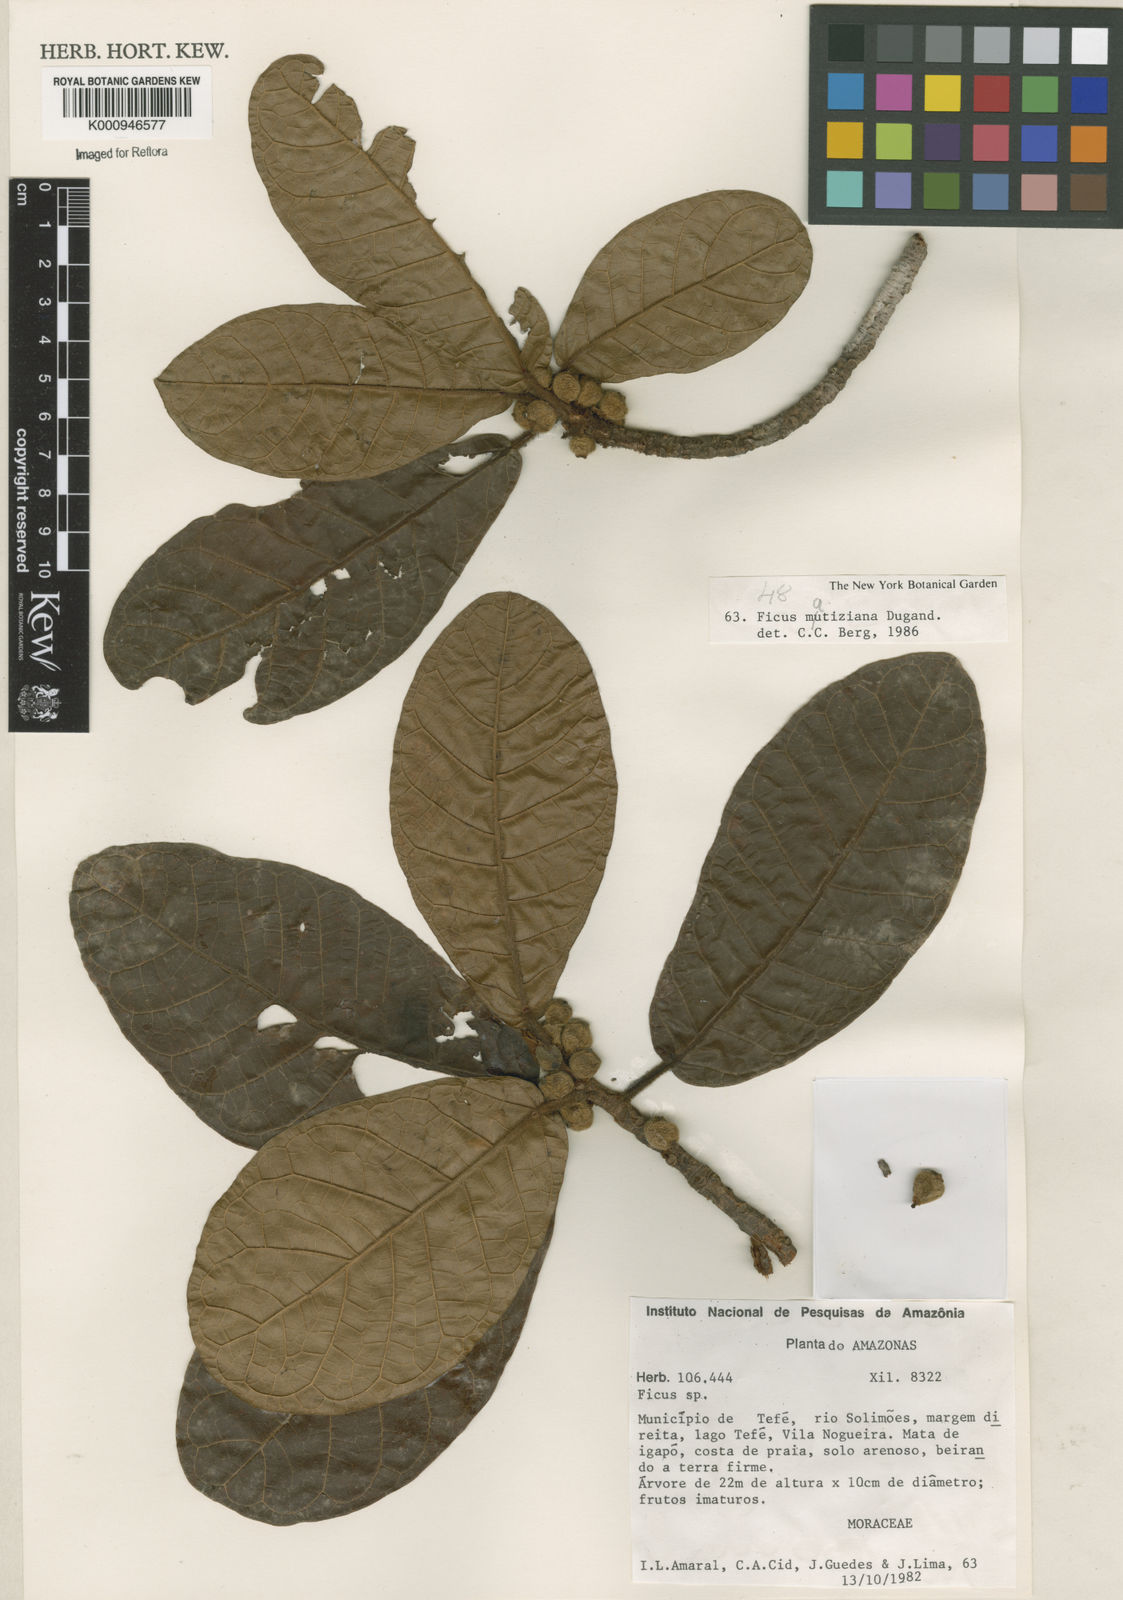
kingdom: Plantae
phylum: Tracheophyta
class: Magnoliopsida
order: Rosales
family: Moraceae
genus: Ficus
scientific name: Ficus matiziana
